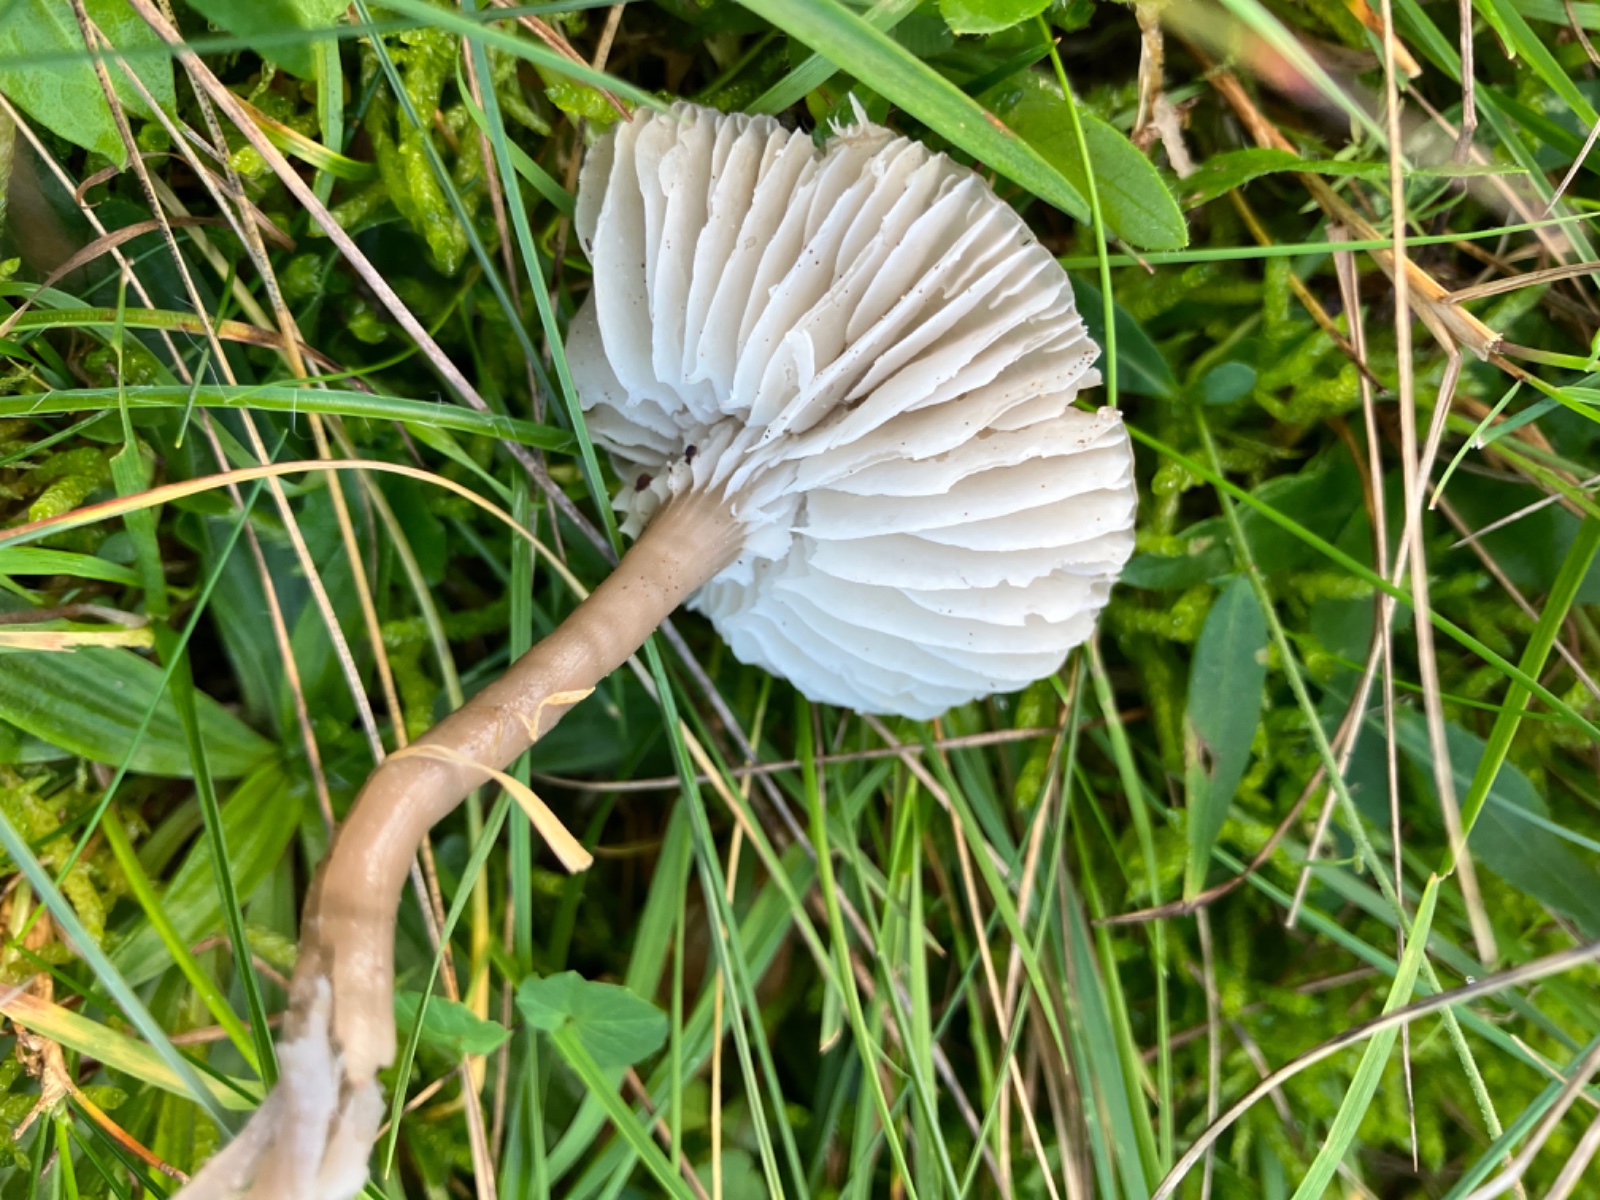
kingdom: Fungi
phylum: Basidiomycota
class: Agaricomycetes
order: Agaricales
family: Hygrophoraceae
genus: Gliophorus
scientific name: Gliophorus irrigatus
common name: slimet vokshat
